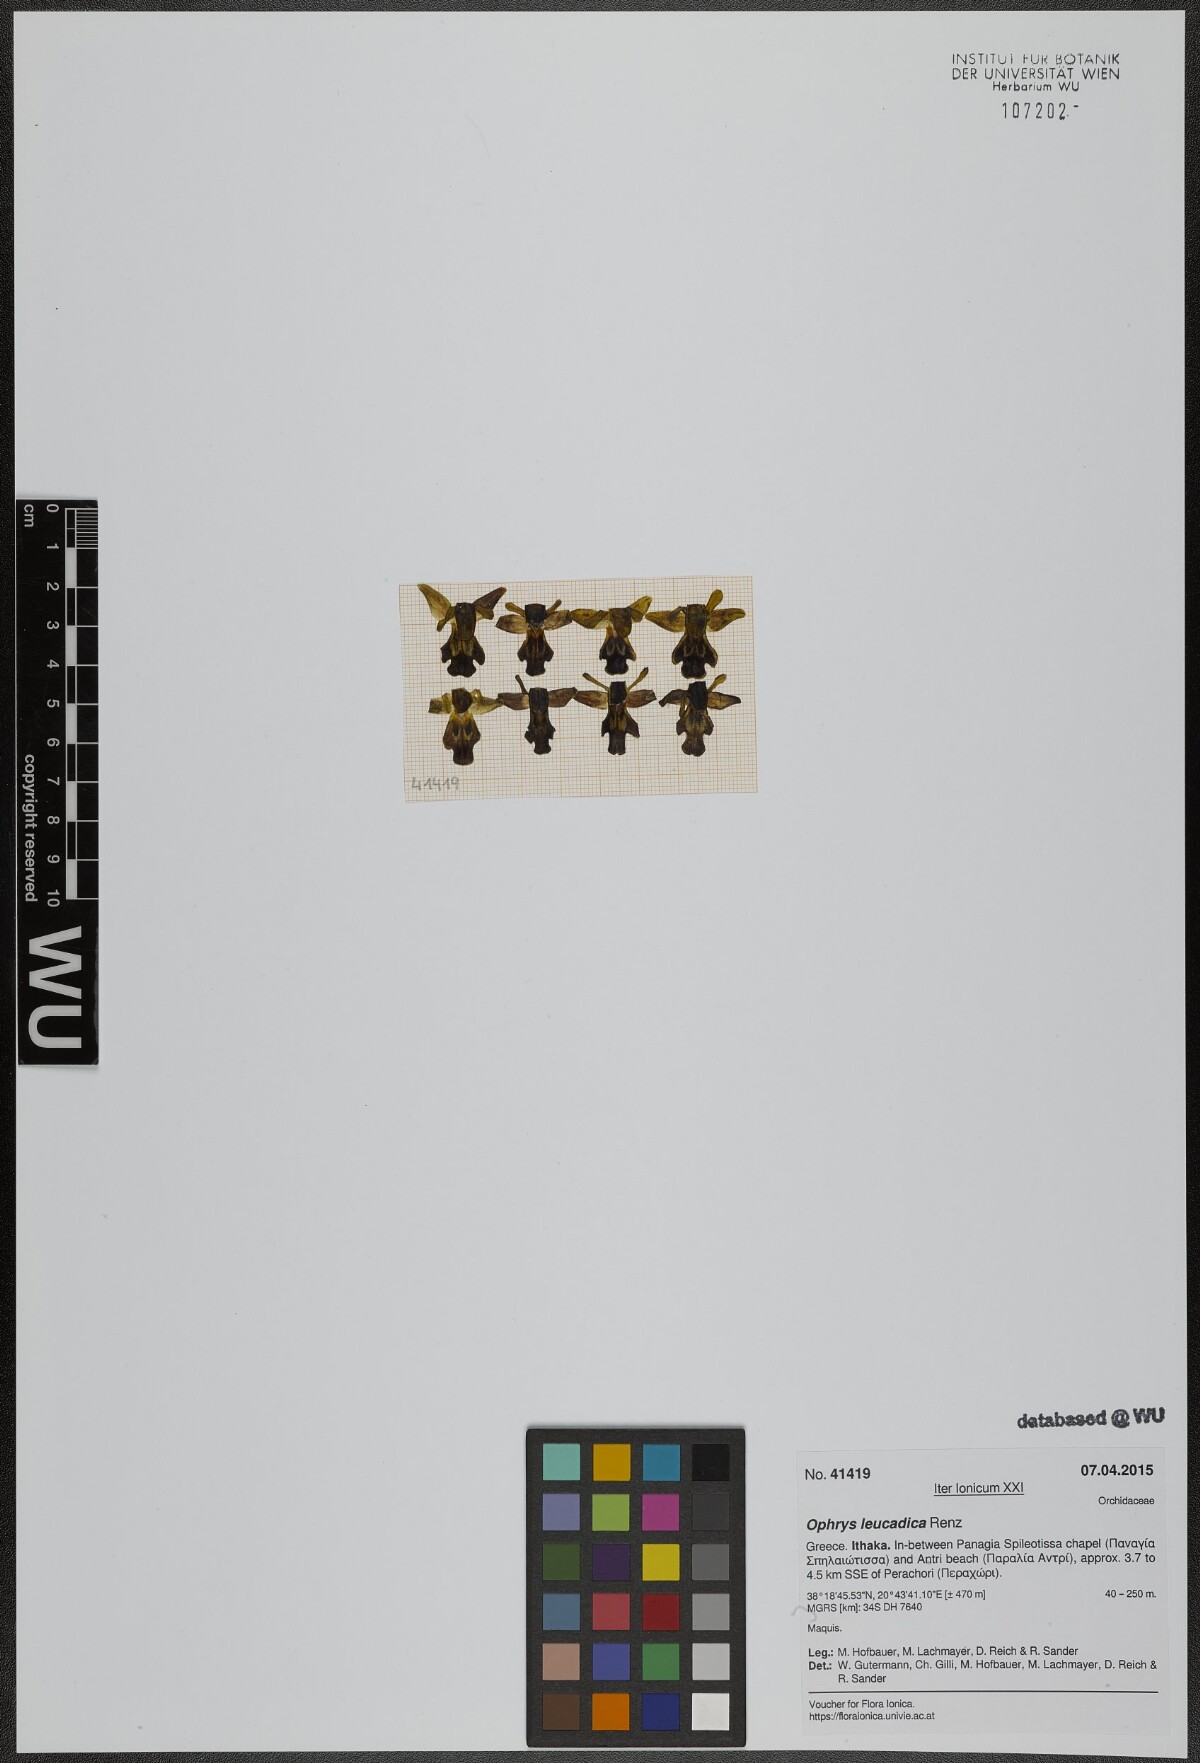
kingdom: Plantae
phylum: Tracheophyta
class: Liliopsida
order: Asparagales
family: Orchidaceae
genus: Ophrys
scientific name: Ophrys fusca
